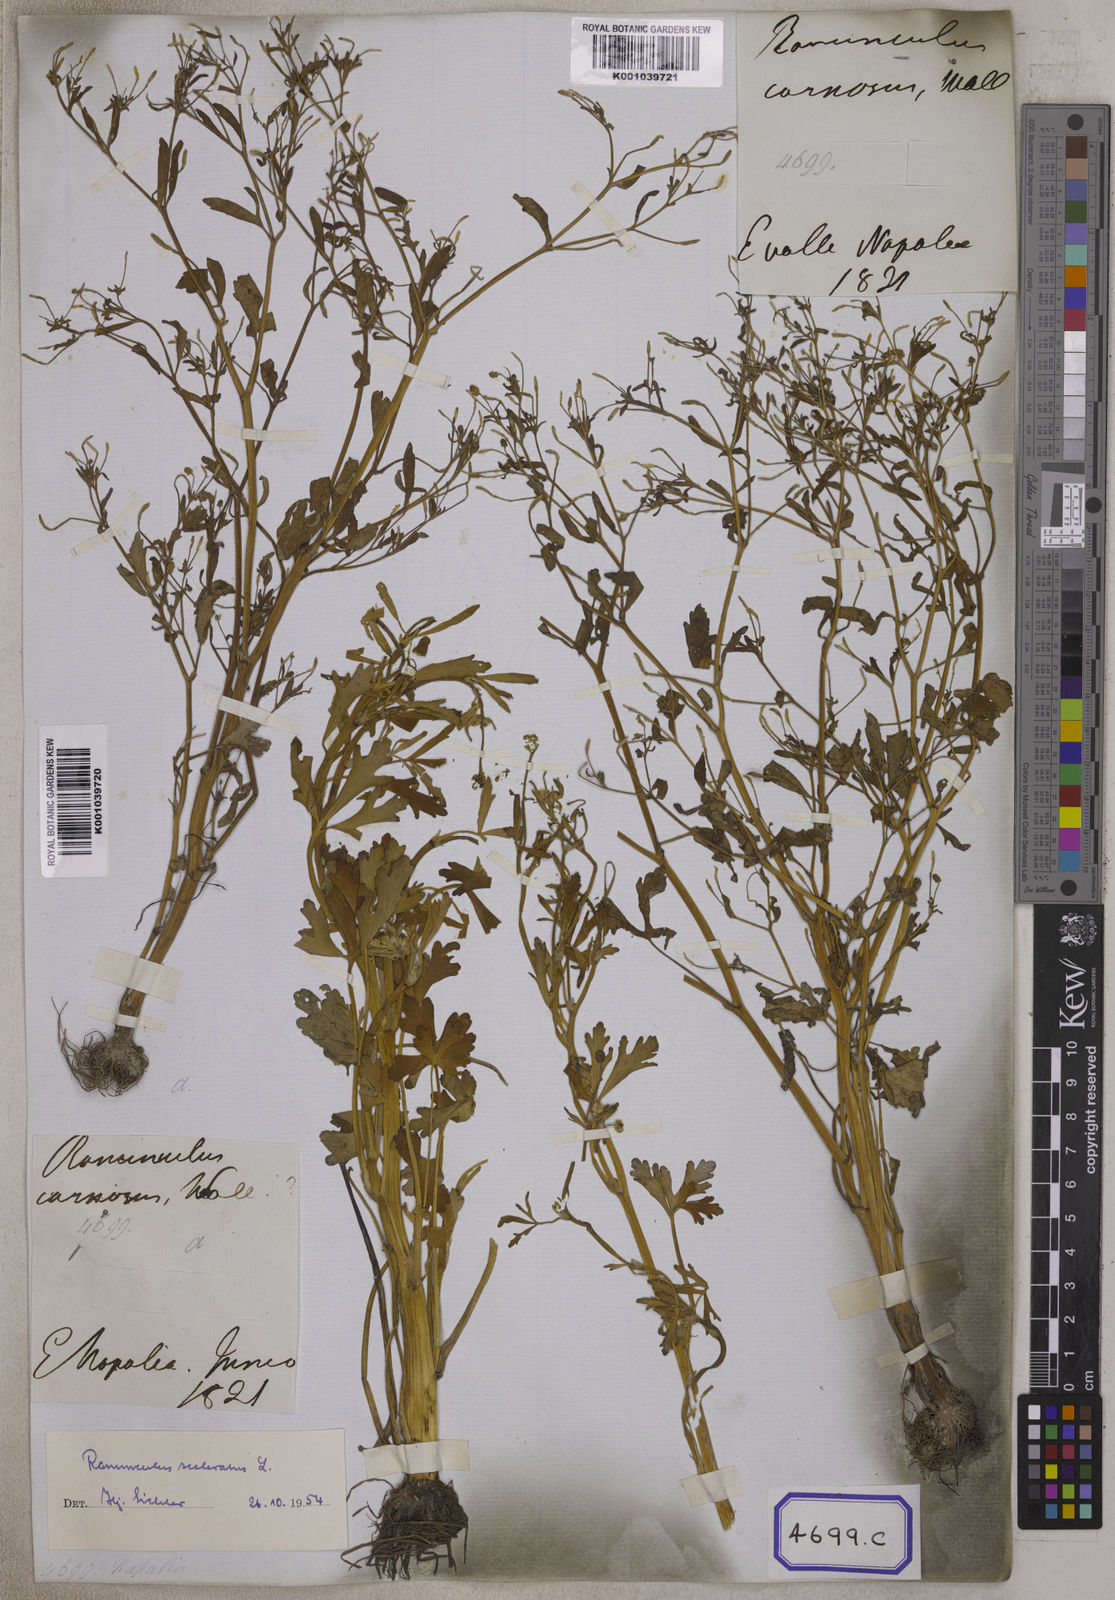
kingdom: Plantae
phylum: Tracheophyta
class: Magnoliopsida
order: Ranunculales
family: Ranunculaceae
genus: Ranunculus
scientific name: Ranunculus sceleratus
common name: Celery-leaved buttercup
